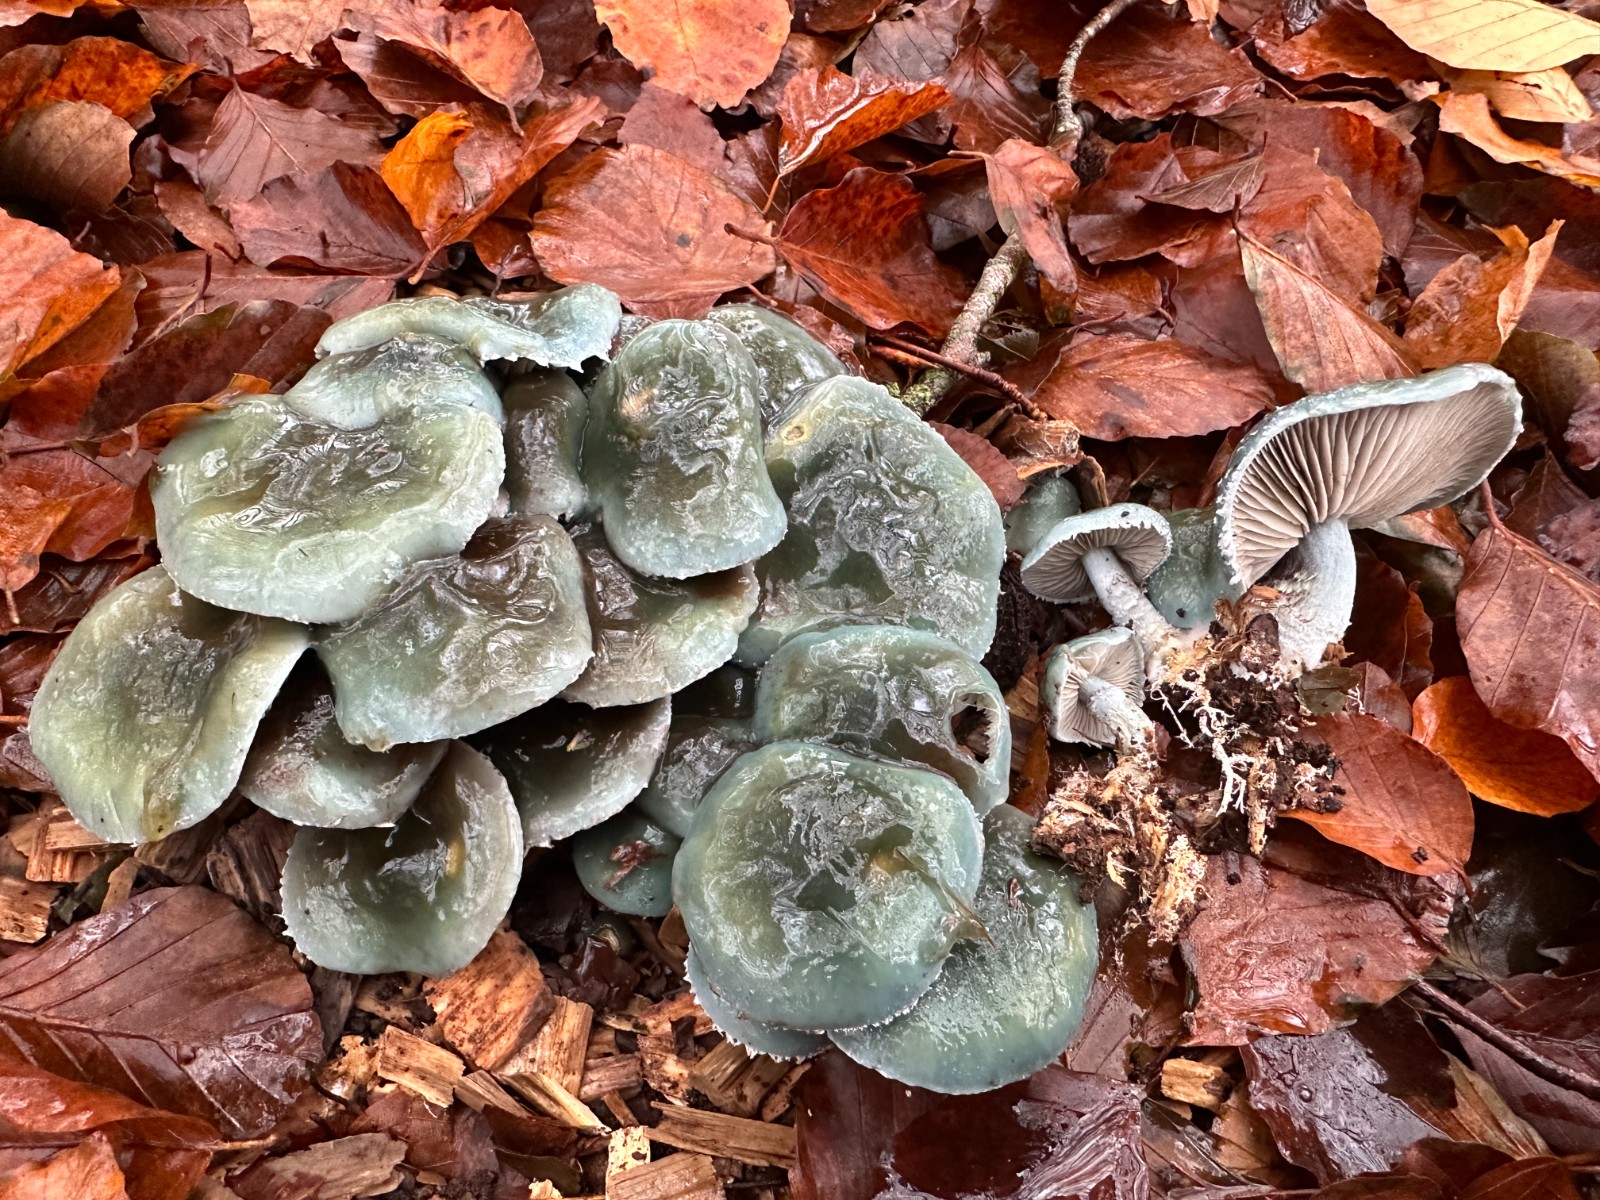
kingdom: Fungi
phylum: Basidiomycota
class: Agaricomycetes
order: Agaricales
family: Strophariaceae
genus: Stropharia
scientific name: Stropharia aeruginosa
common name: spanskgrøn bredblad
